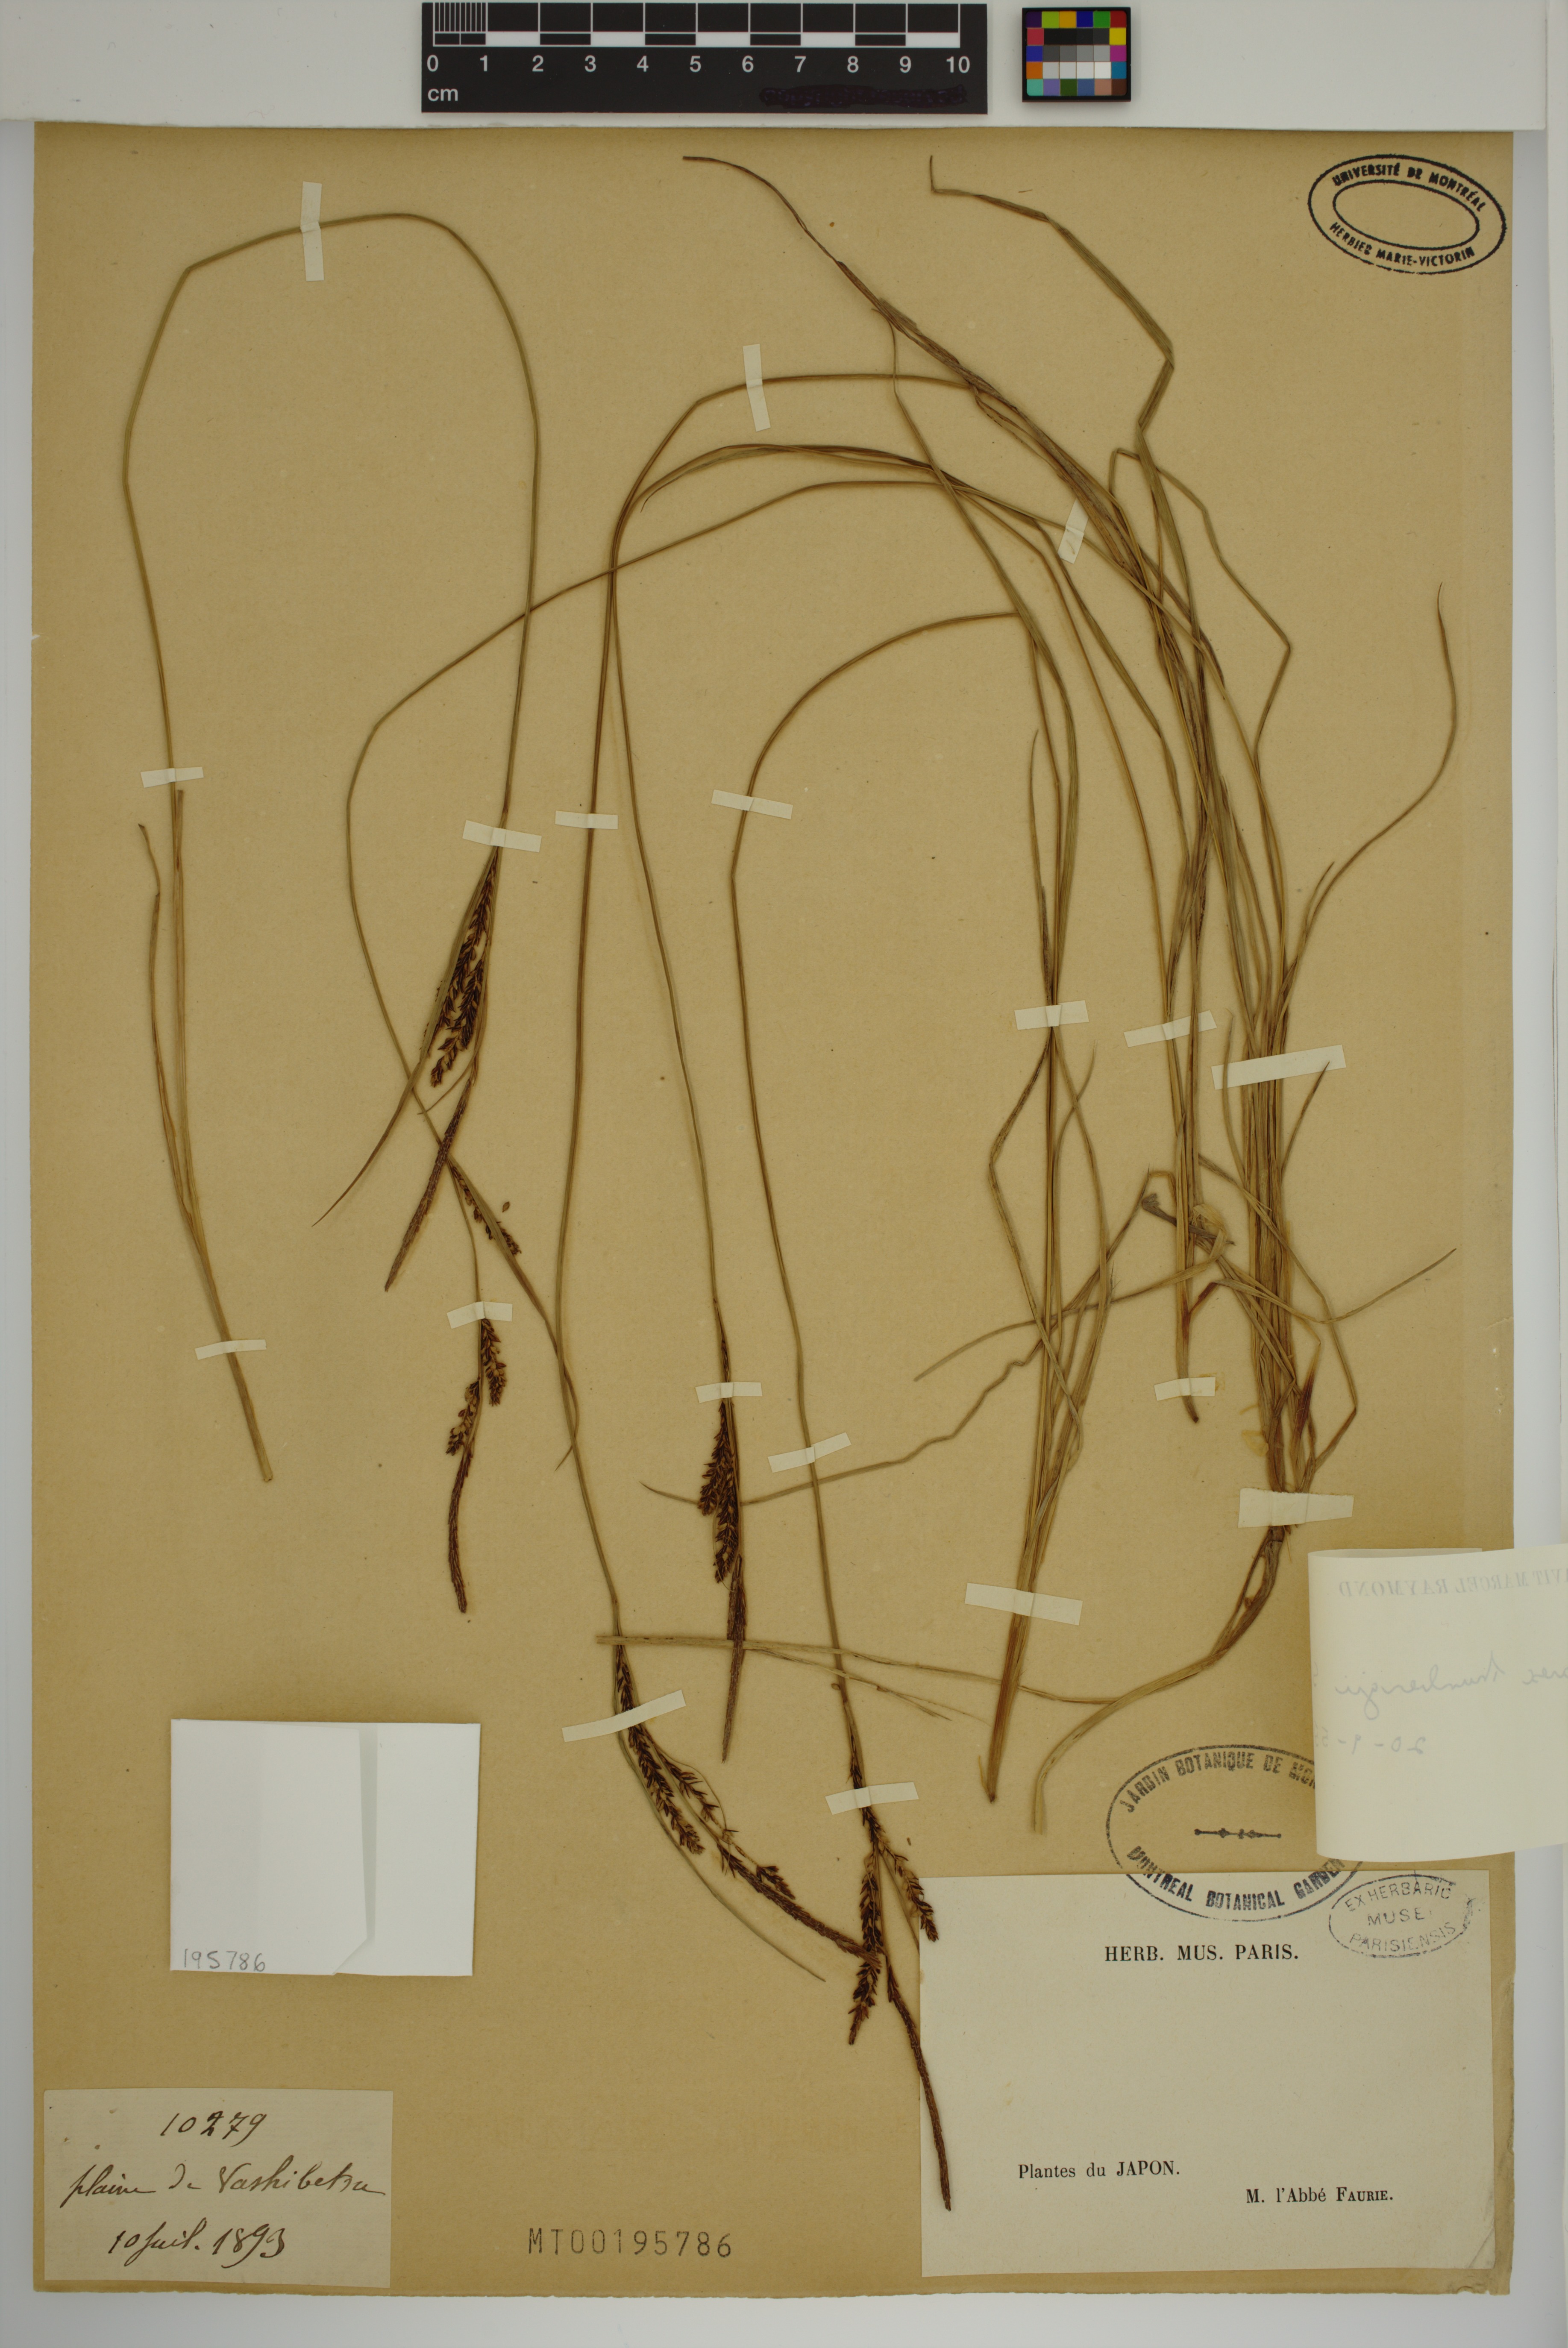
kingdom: Plantae
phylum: Tracheophyta
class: Liliopsida
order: Poales
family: Cyperaceae
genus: Carex
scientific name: Carex thunbergii
